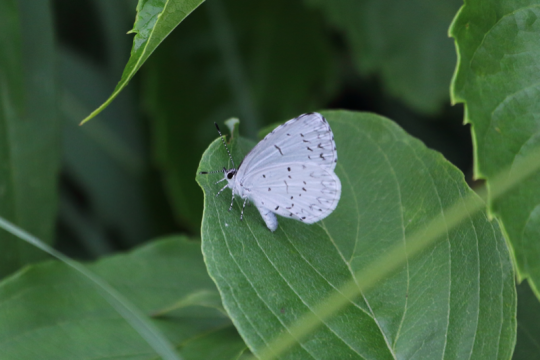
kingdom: Animalia
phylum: Arthropoda
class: Insecta
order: Lepidoptera
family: Lycaenidae
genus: Cyaniris
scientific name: Cyaniris neglecta
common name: Summer Azure
